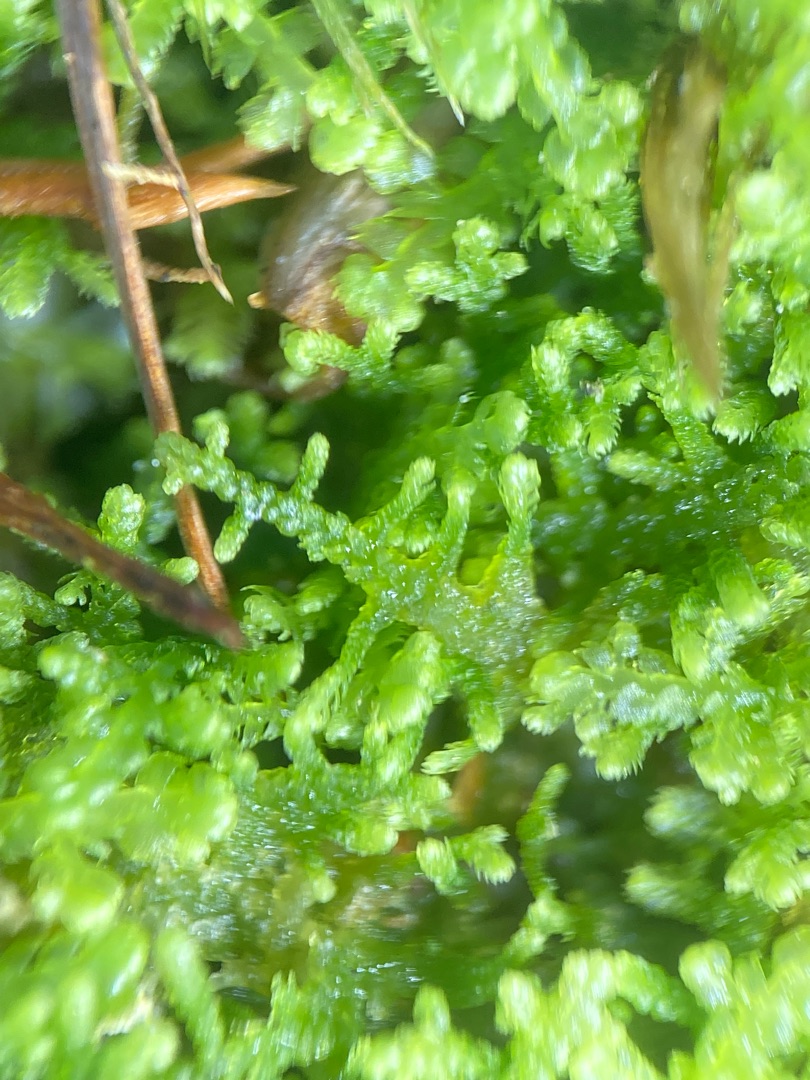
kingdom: Plantae
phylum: Marchantiophyta
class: Jungermanniopsida
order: Jungermanniales
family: Lepidoziaceae
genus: Lepidozia
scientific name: Lepidozia reptans
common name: Krybende fingermos
